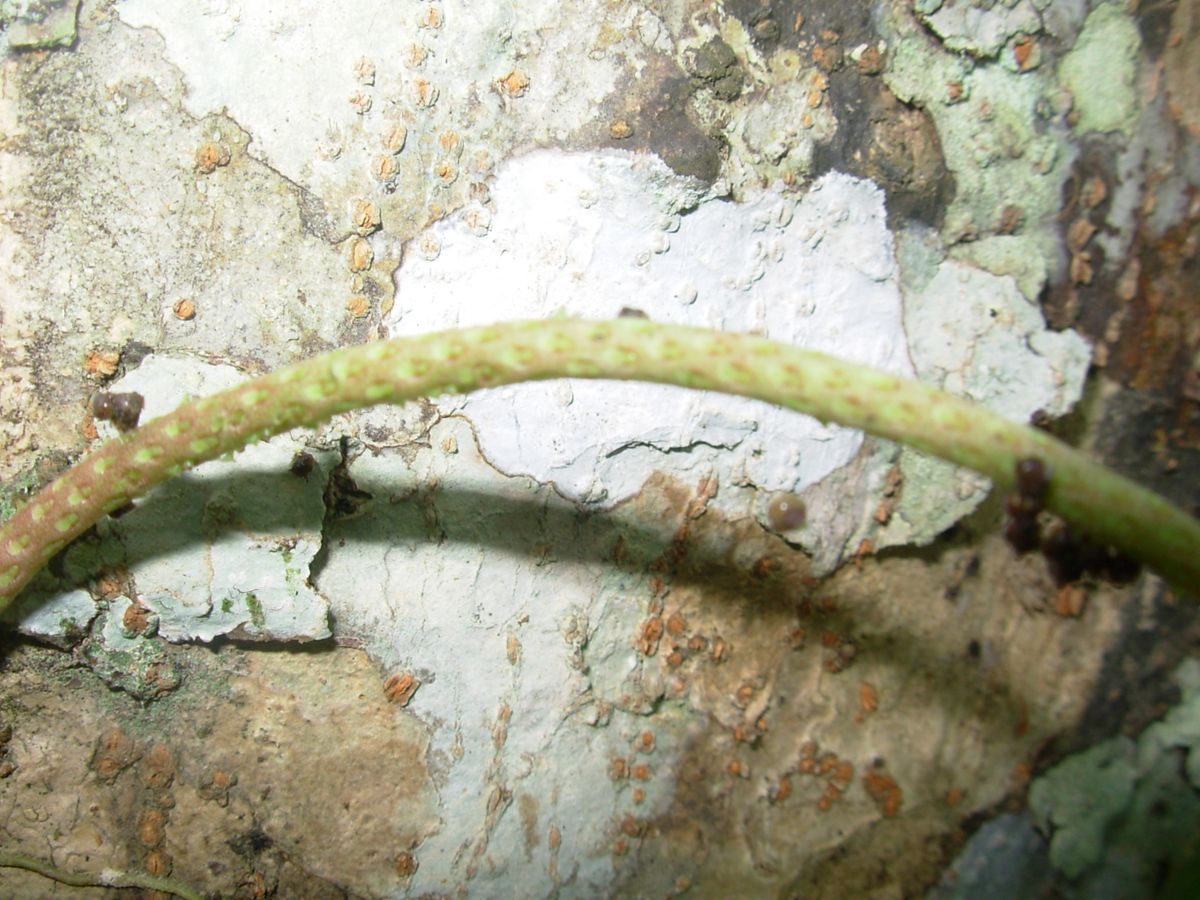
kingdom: Plantae
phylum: Tracheophyta
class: Magnoliopsida
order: Piperales
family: Piperaceae
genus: Peperomia
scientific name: Peperomia pseudopereskiifolia
